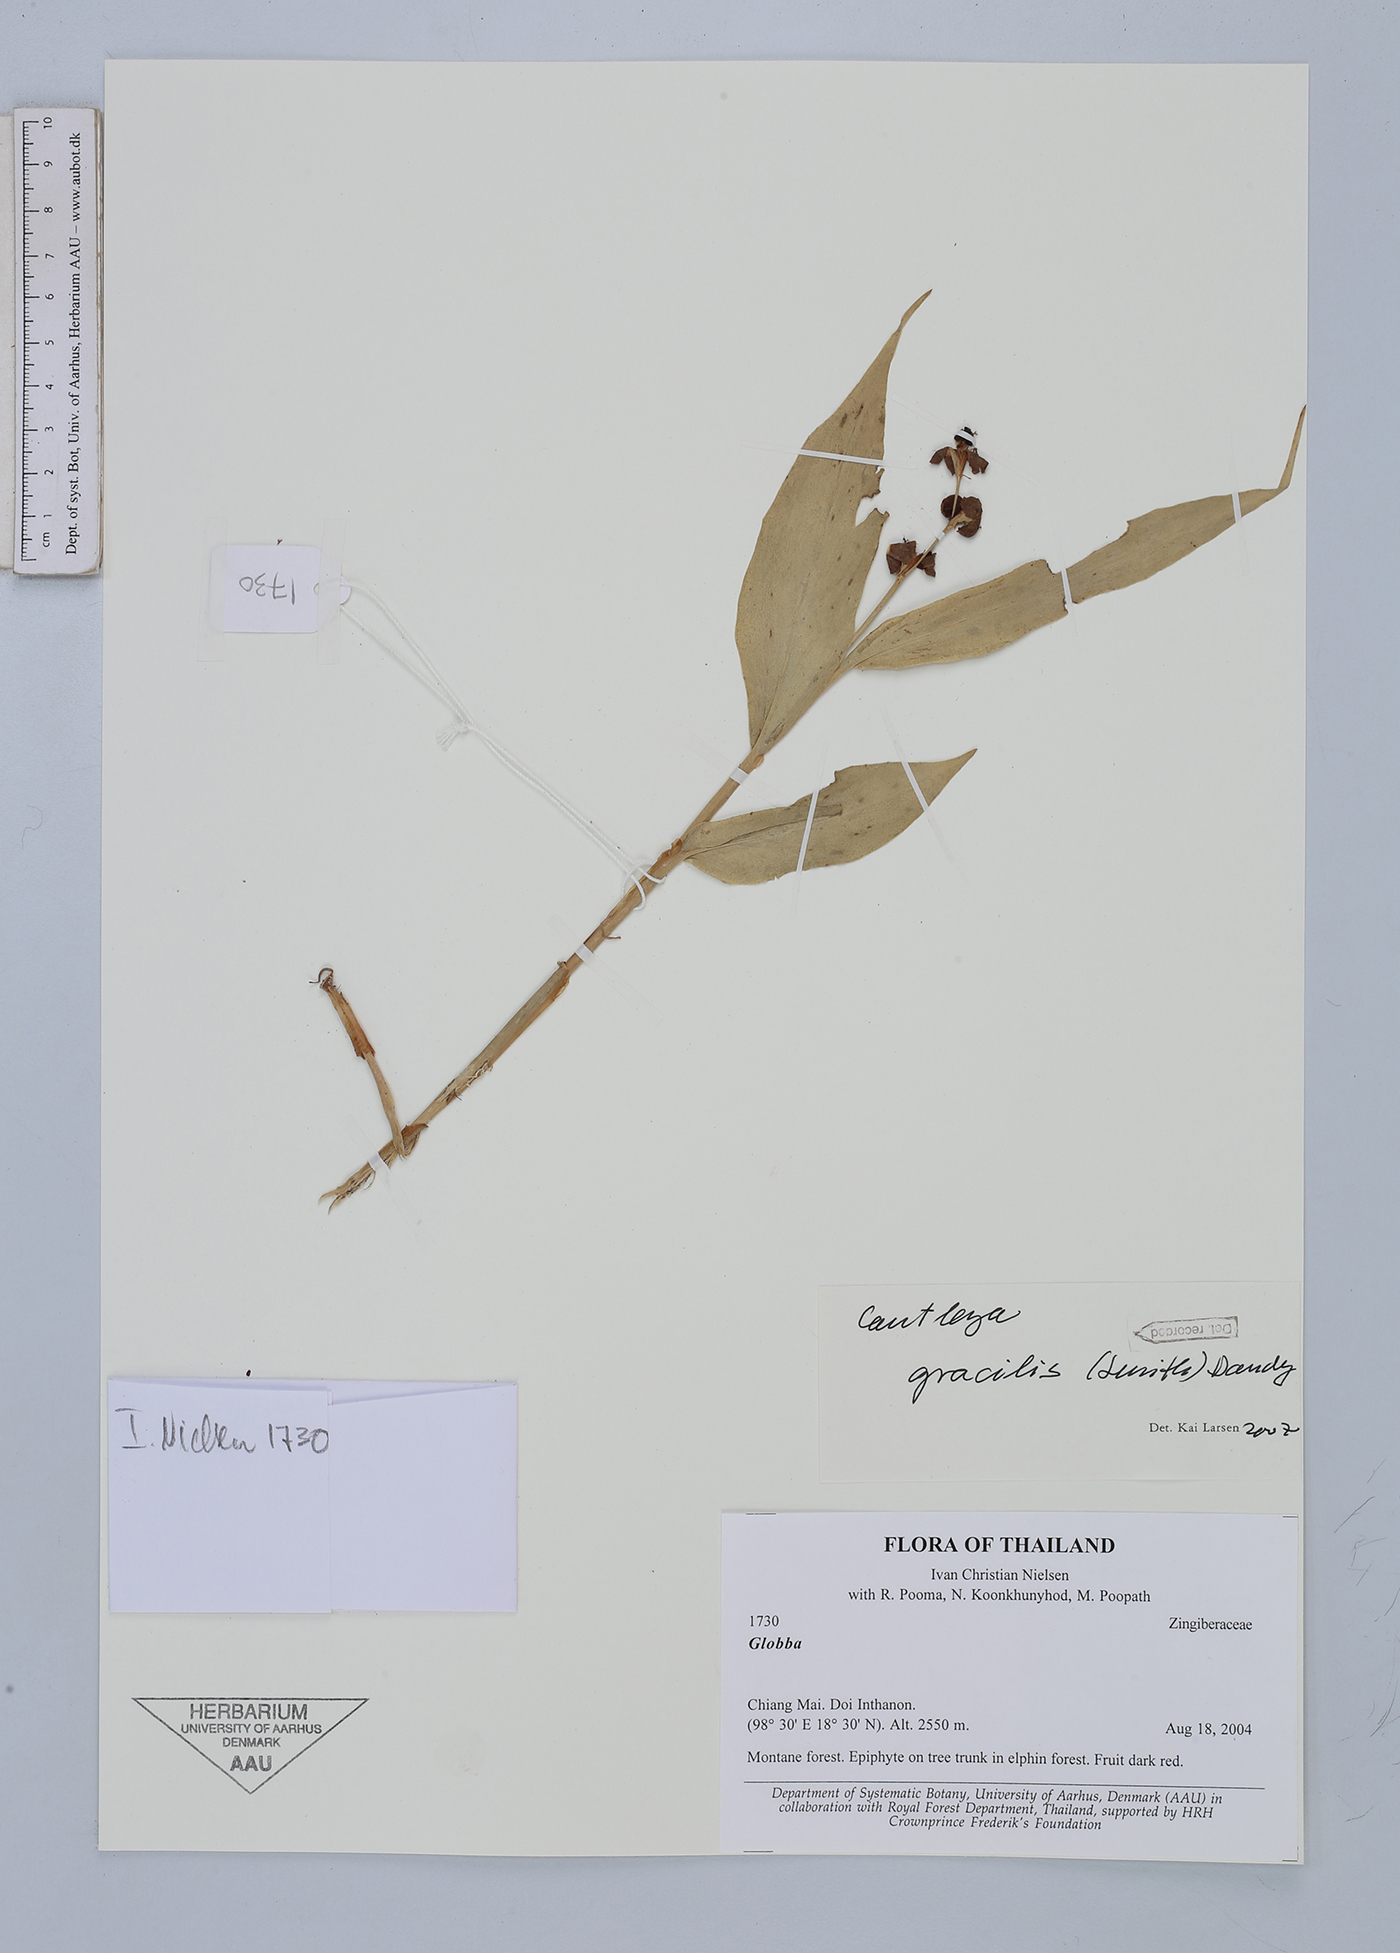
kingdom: Plantae
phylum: Tracheophyta
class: Liliopsida
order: Zingiberales
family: Zingiberaceae
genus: Cautleya
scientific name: Cautleya gracilis
